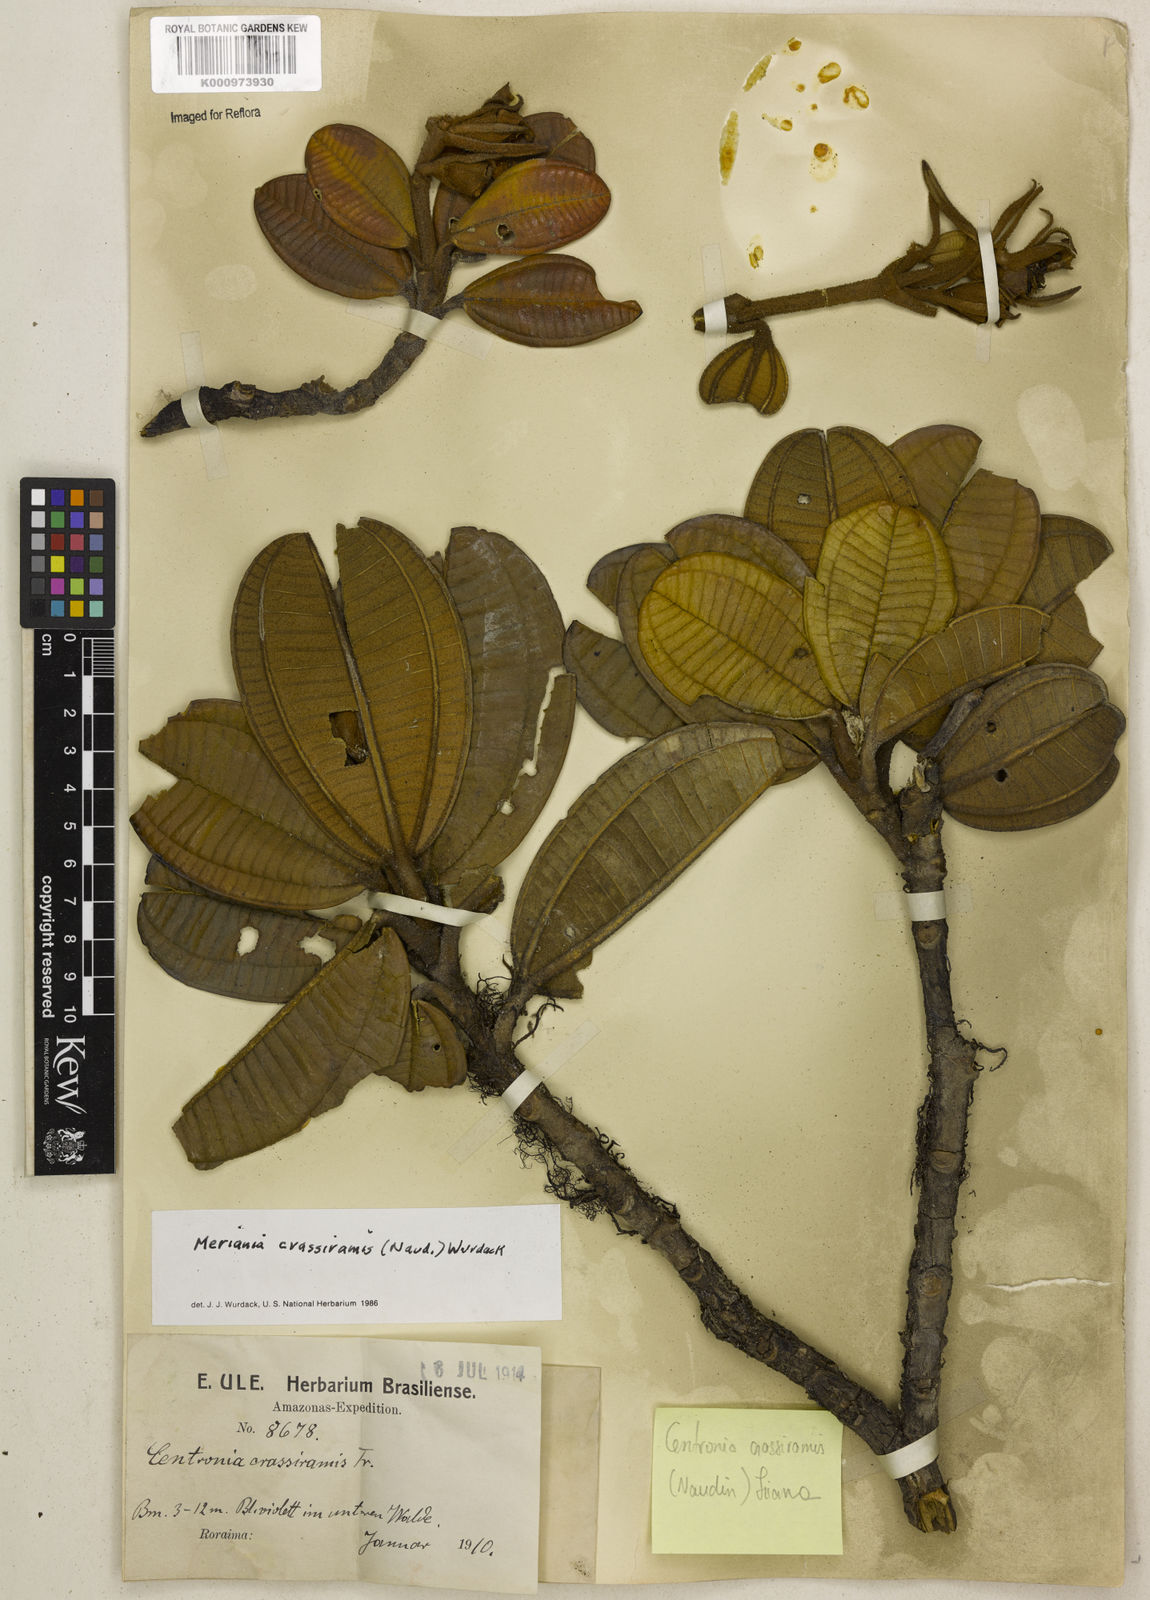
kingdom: Plantae
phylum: Tracheophyta
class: Magnoliopsida
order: Myrtales
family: Melastomataceae
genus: Meriania
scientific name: Meriania crassiramis
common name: Thickbranche buglelily
